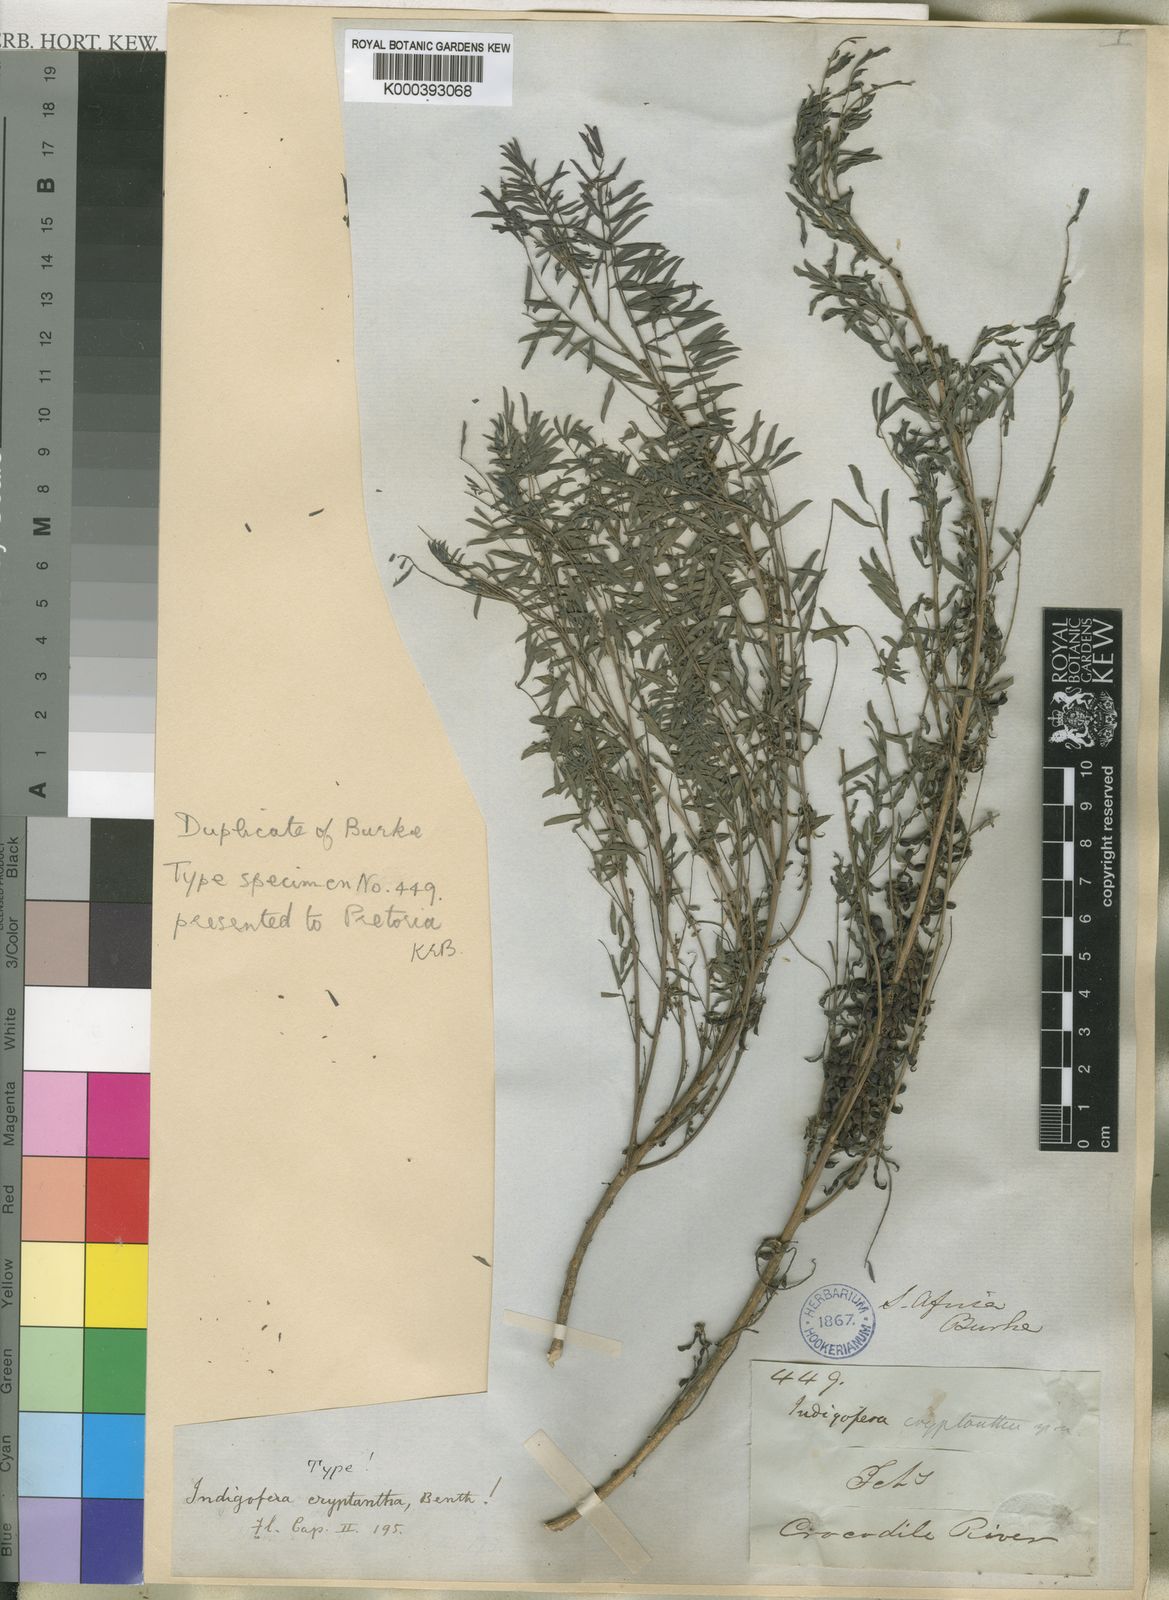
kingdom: Plantae
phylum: Tracheophyta
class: Magnoliopsida
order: Fabales
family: Fabaceae
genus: Indigofera
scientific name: Indigofera cryptantha
